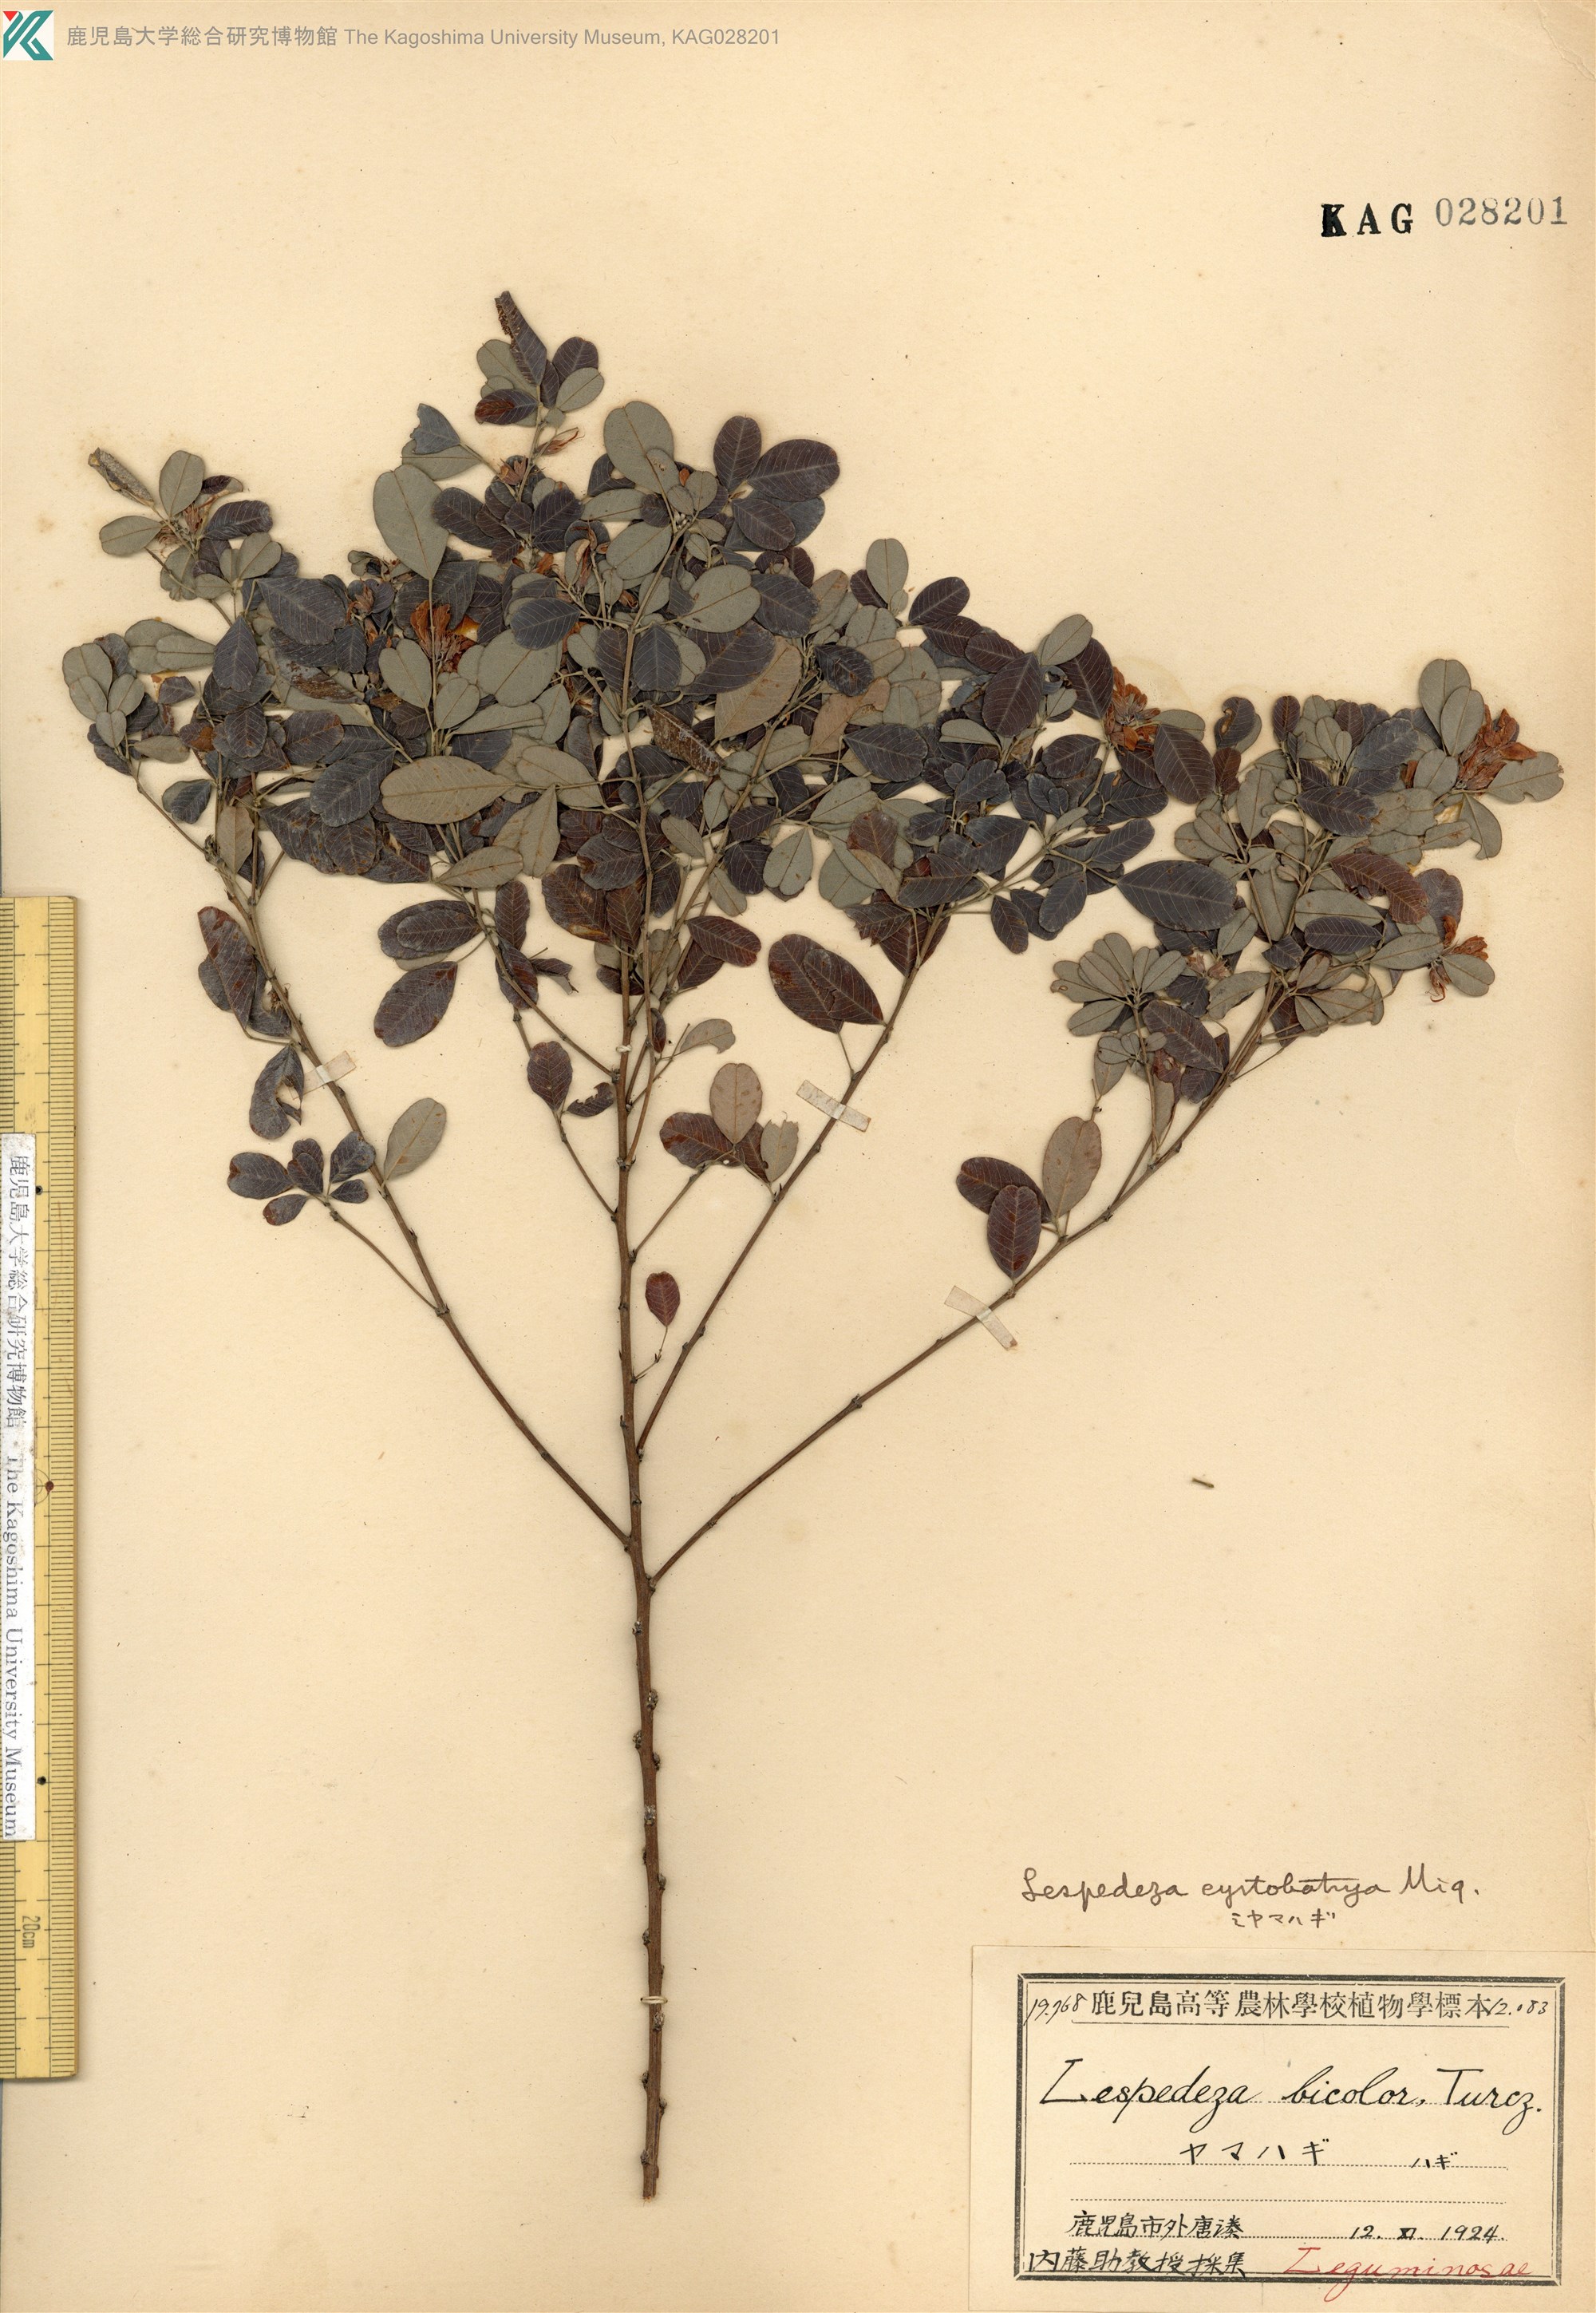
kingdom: Plantae
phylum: Tracheophyta
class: Magnoliopsida
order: Fabales
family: Fabaceae
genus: Lespedeza
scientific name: Lespedeza cyrtobotrya
